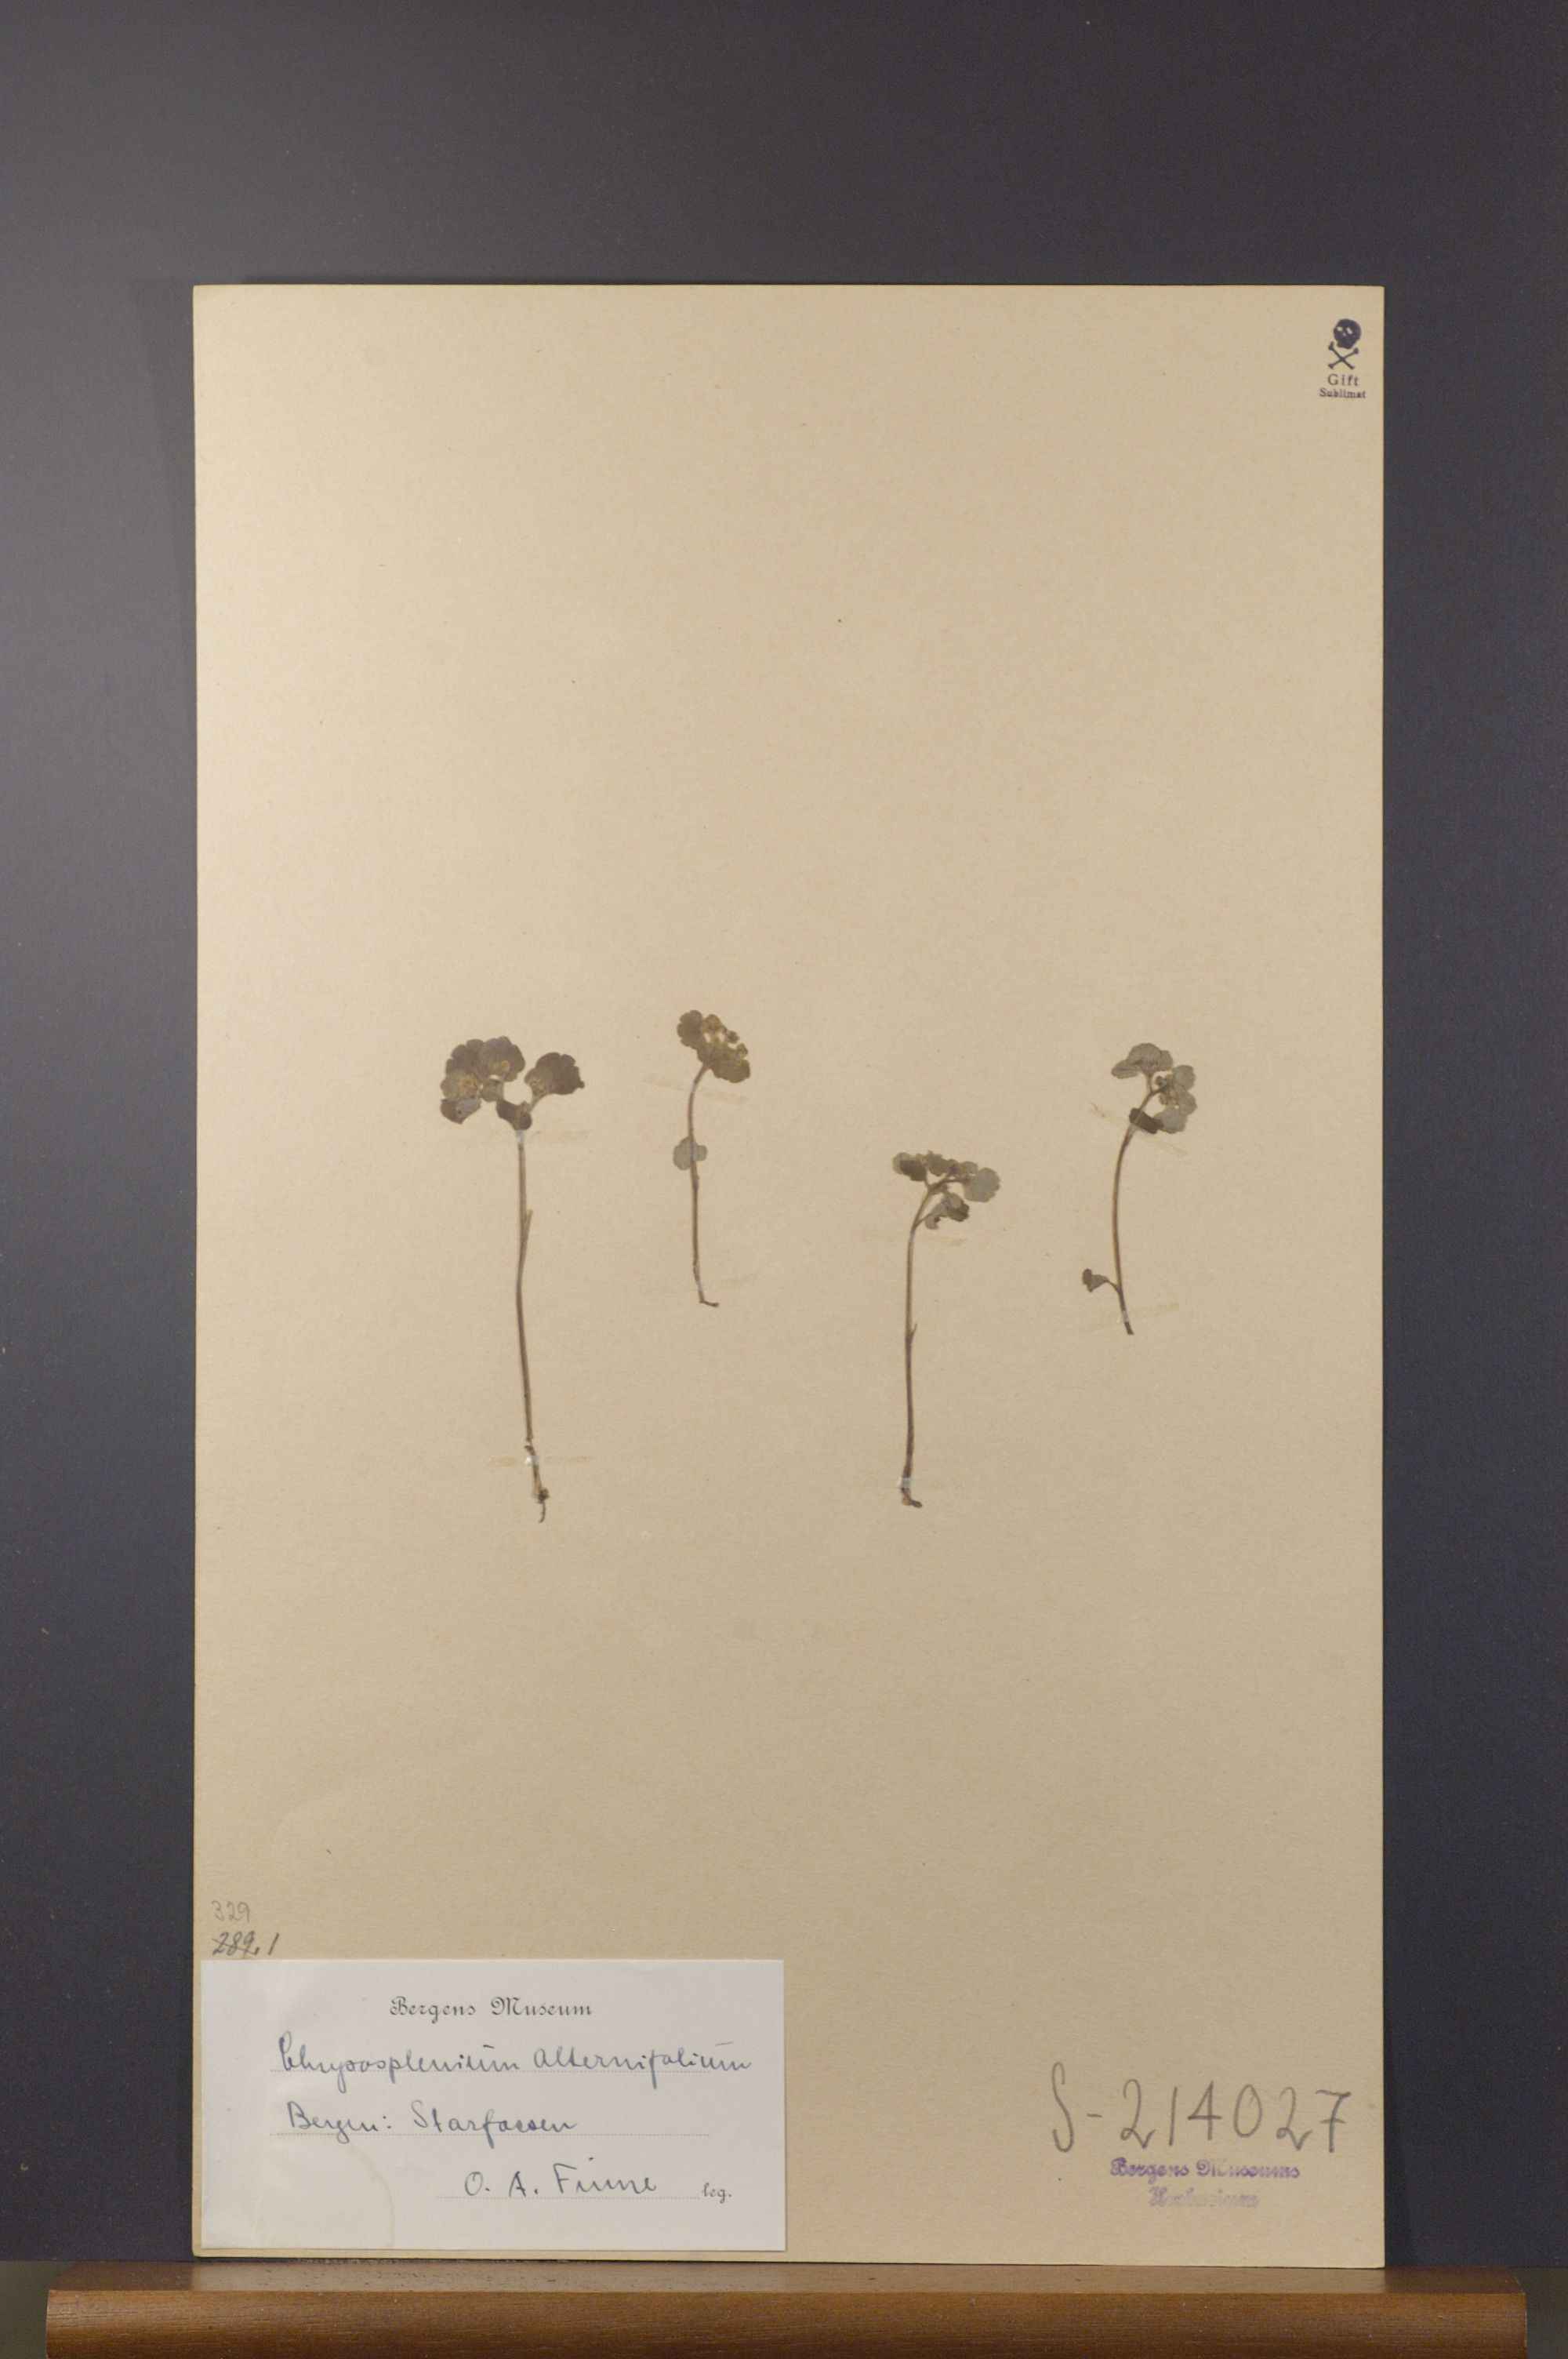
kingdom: Plantae
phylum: Tracheophyta
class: Magnoliopsida
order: Saxifragales
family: Saxifragaceae
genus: Chrysosplenium
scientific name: Chrysosplenium alternifolium
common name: Alternate-leaved golden-saxifrage
